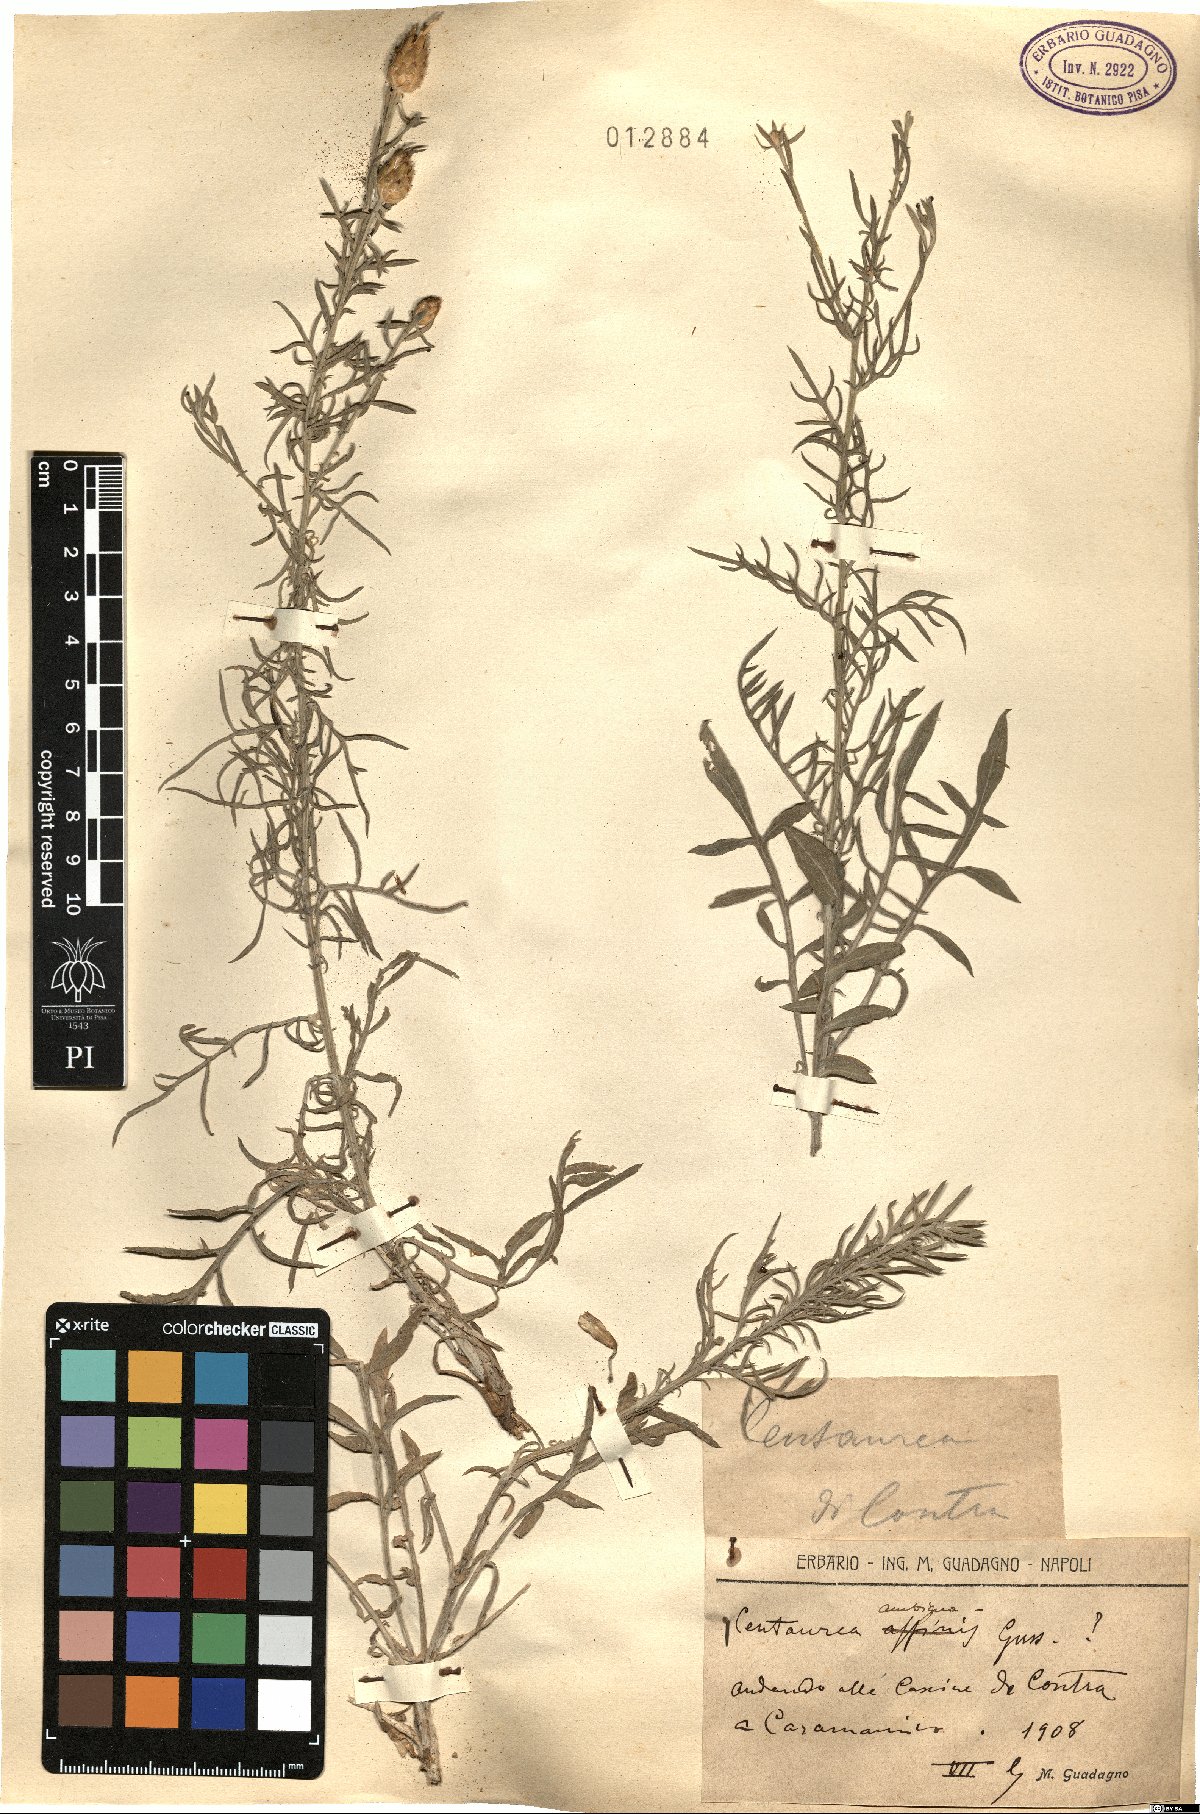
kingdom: Plantae
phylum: Tracheophyta
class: Magnoliopsida
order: Asterales
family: Asteraceae
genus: Centaurea
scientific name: Centaurea ambigua
